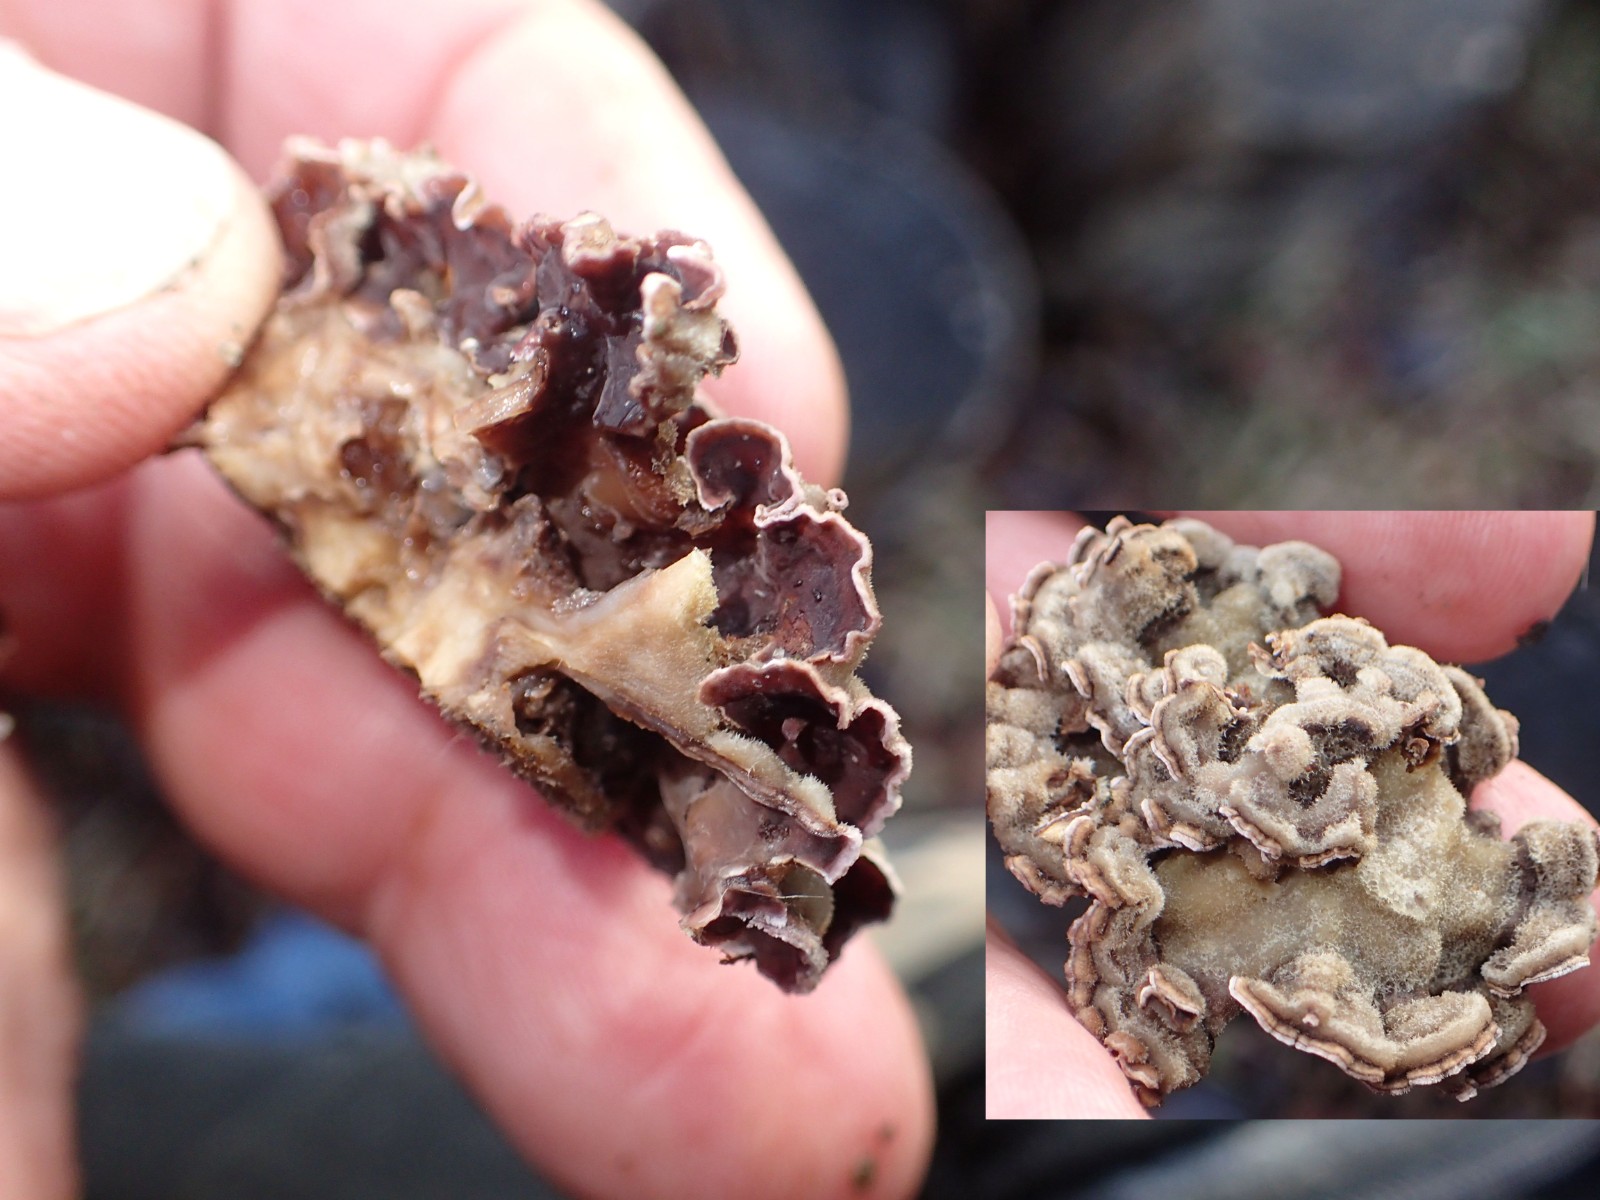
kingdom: Fungi
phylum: Basidiomycota
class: Agaricomycetes
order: Agaricales
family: Cyphellaceae
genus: Chondrostereum
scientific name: Chondrostereum purpureum
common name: purpurlædersvamp
